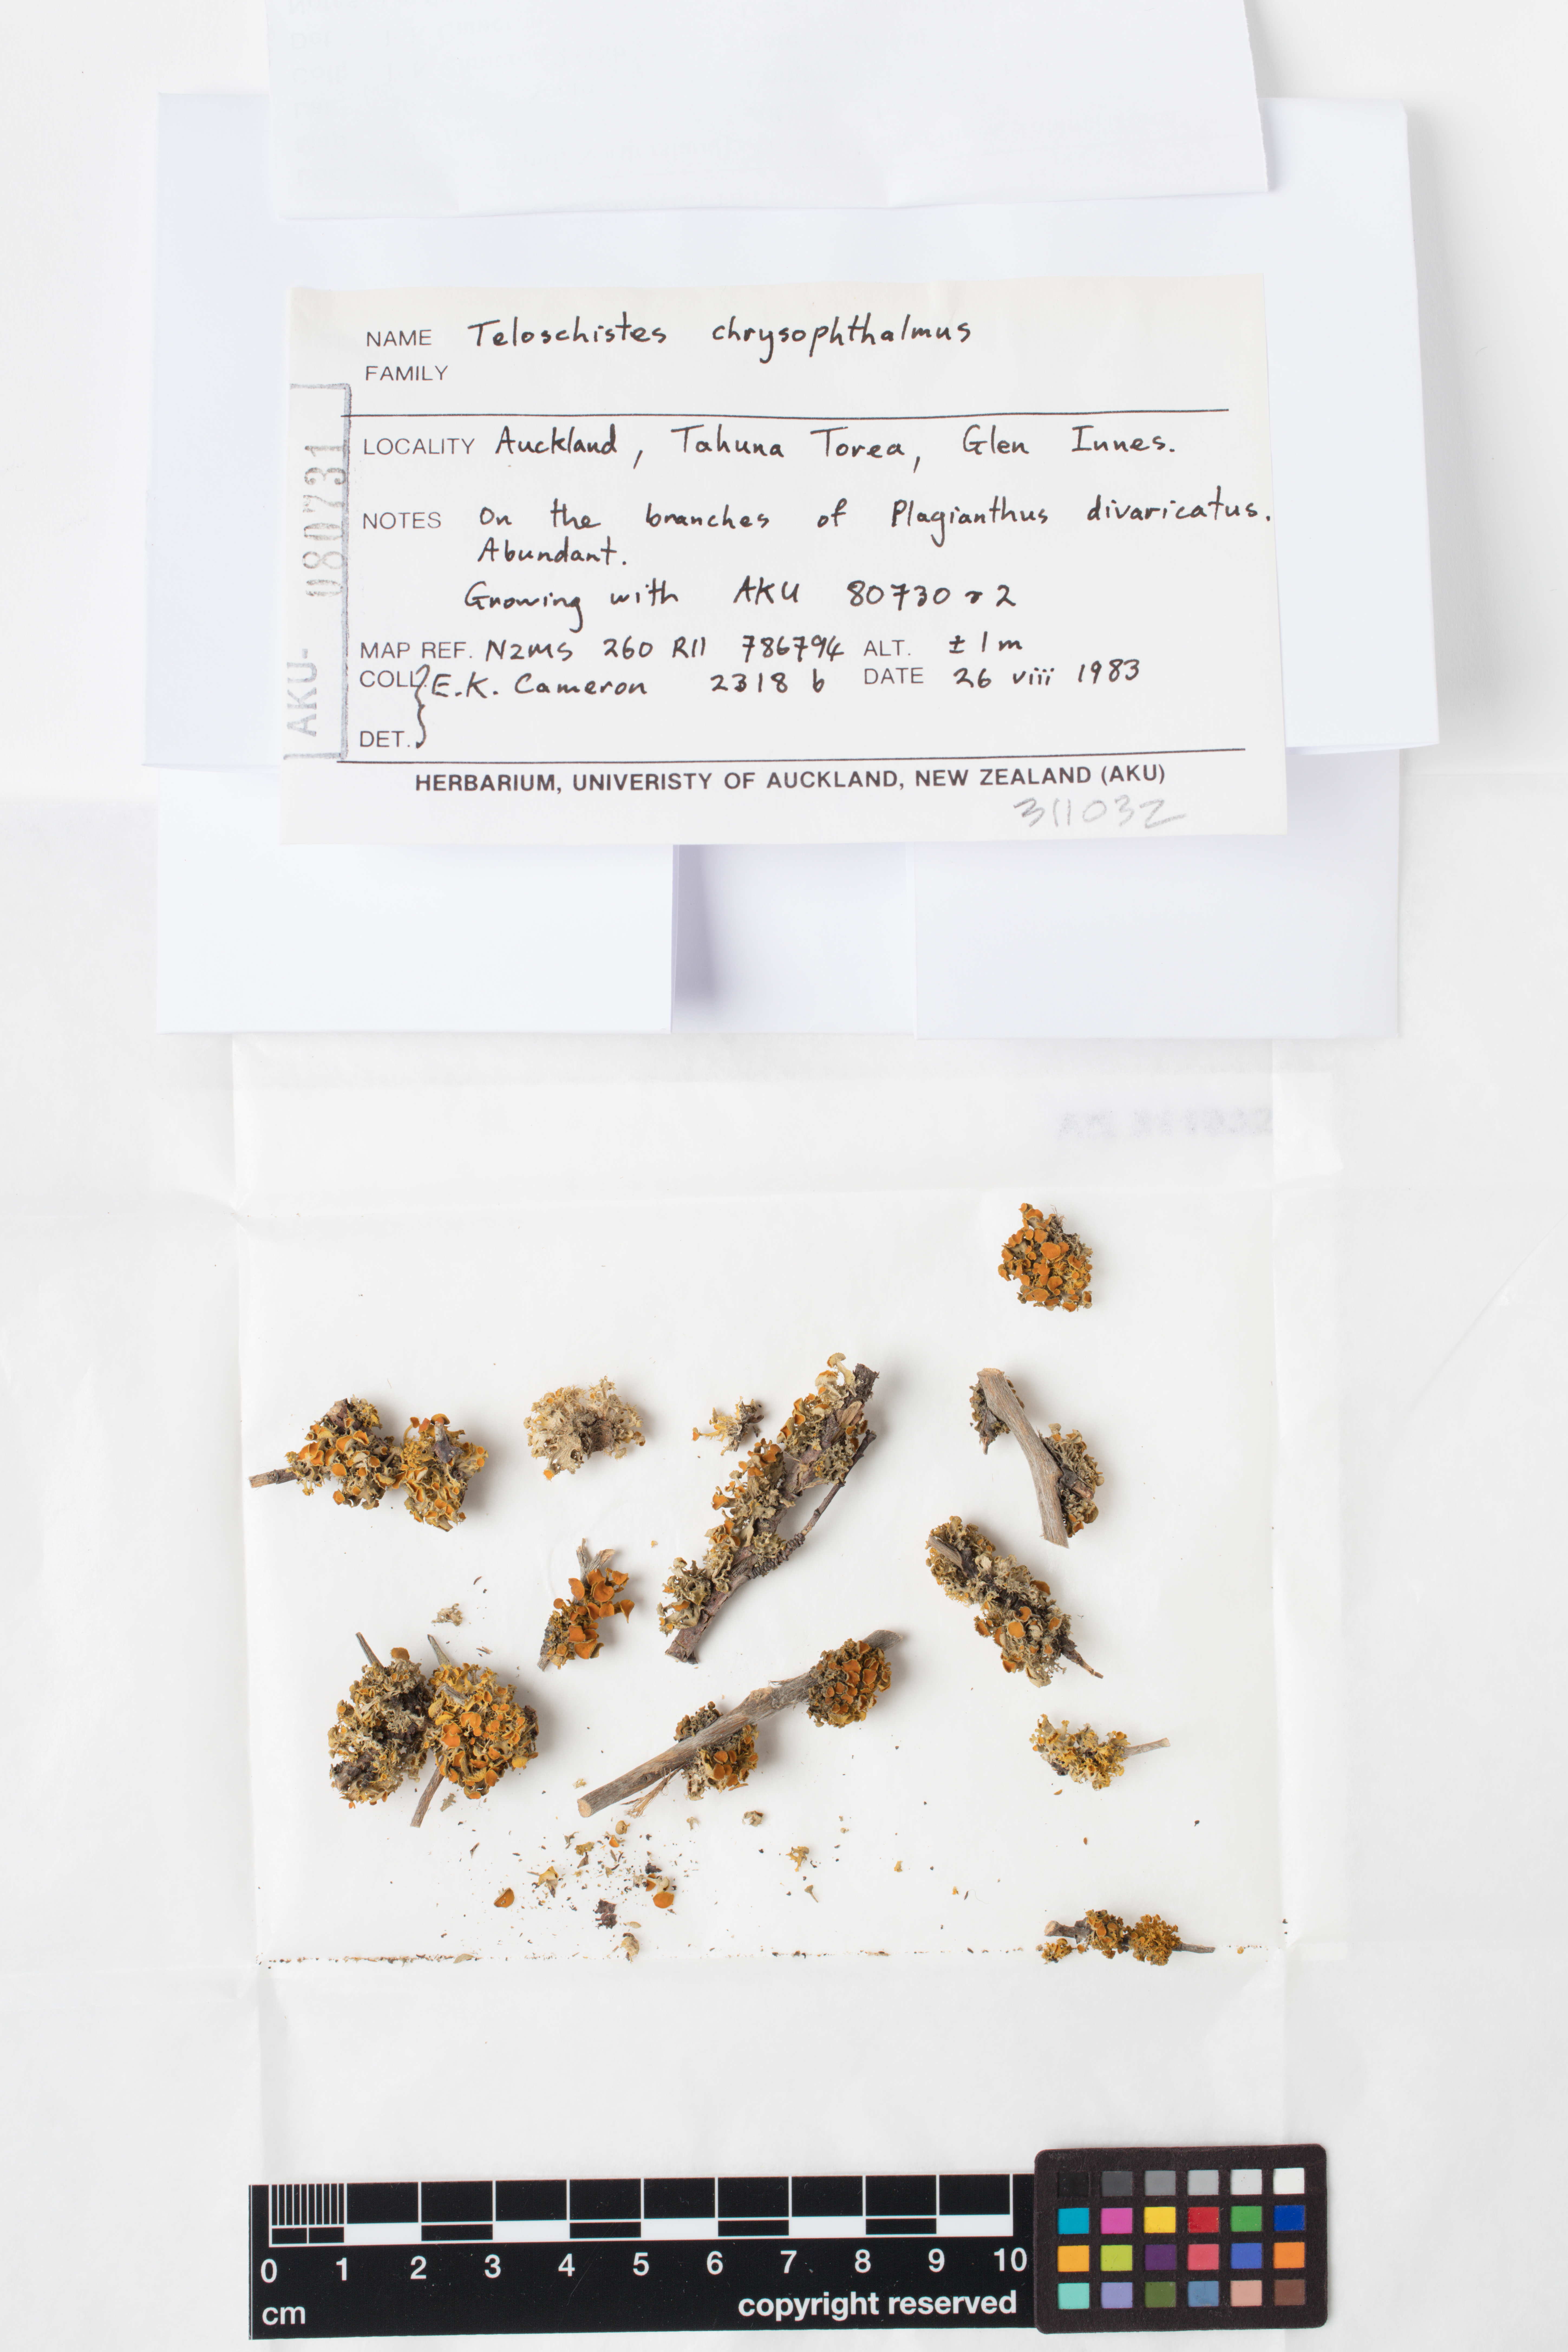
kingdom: Fungi
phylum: Ascomycota
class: Lecanoromycetes
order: Teloschistales
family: Teloschistaceae
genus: Niorma
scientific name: Niorma chrysophthalma
